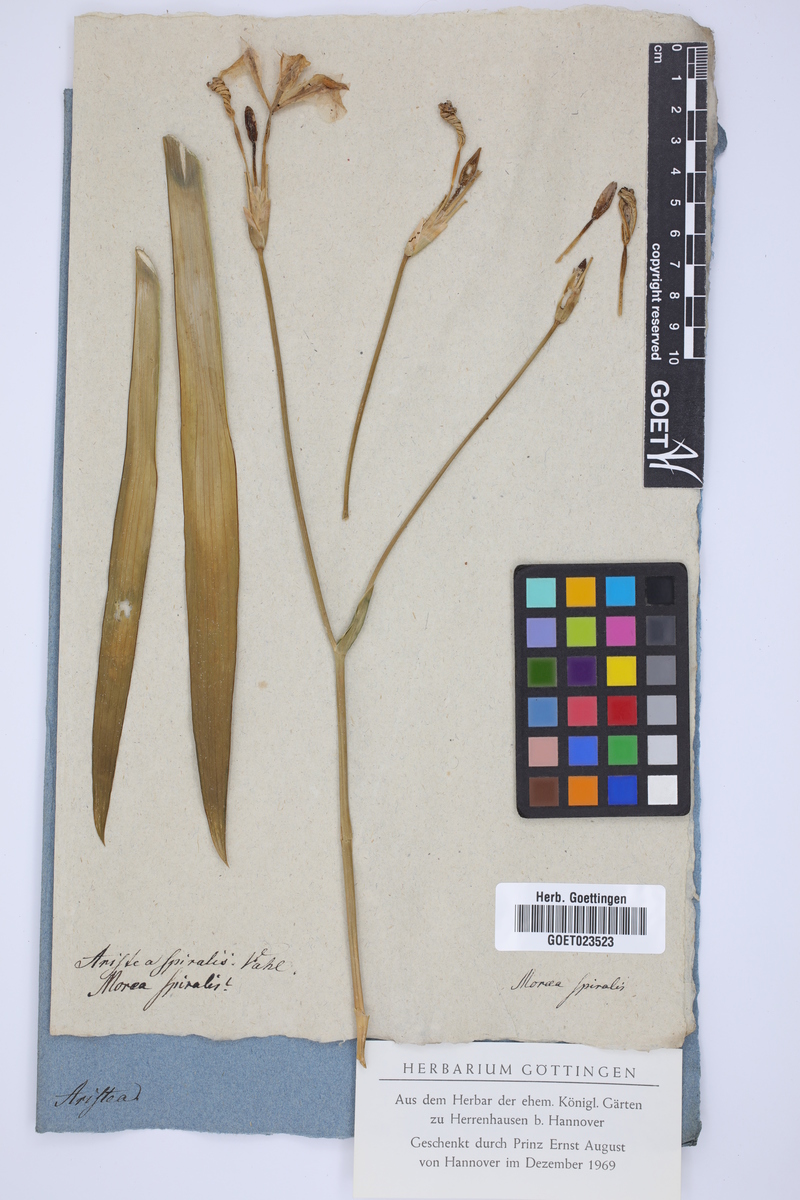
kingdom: Plantae
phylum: Tracheophyta
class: Liliopsida
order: Asparagales
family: Iridaceae
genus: Aristea
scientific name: Aristea spiralis
